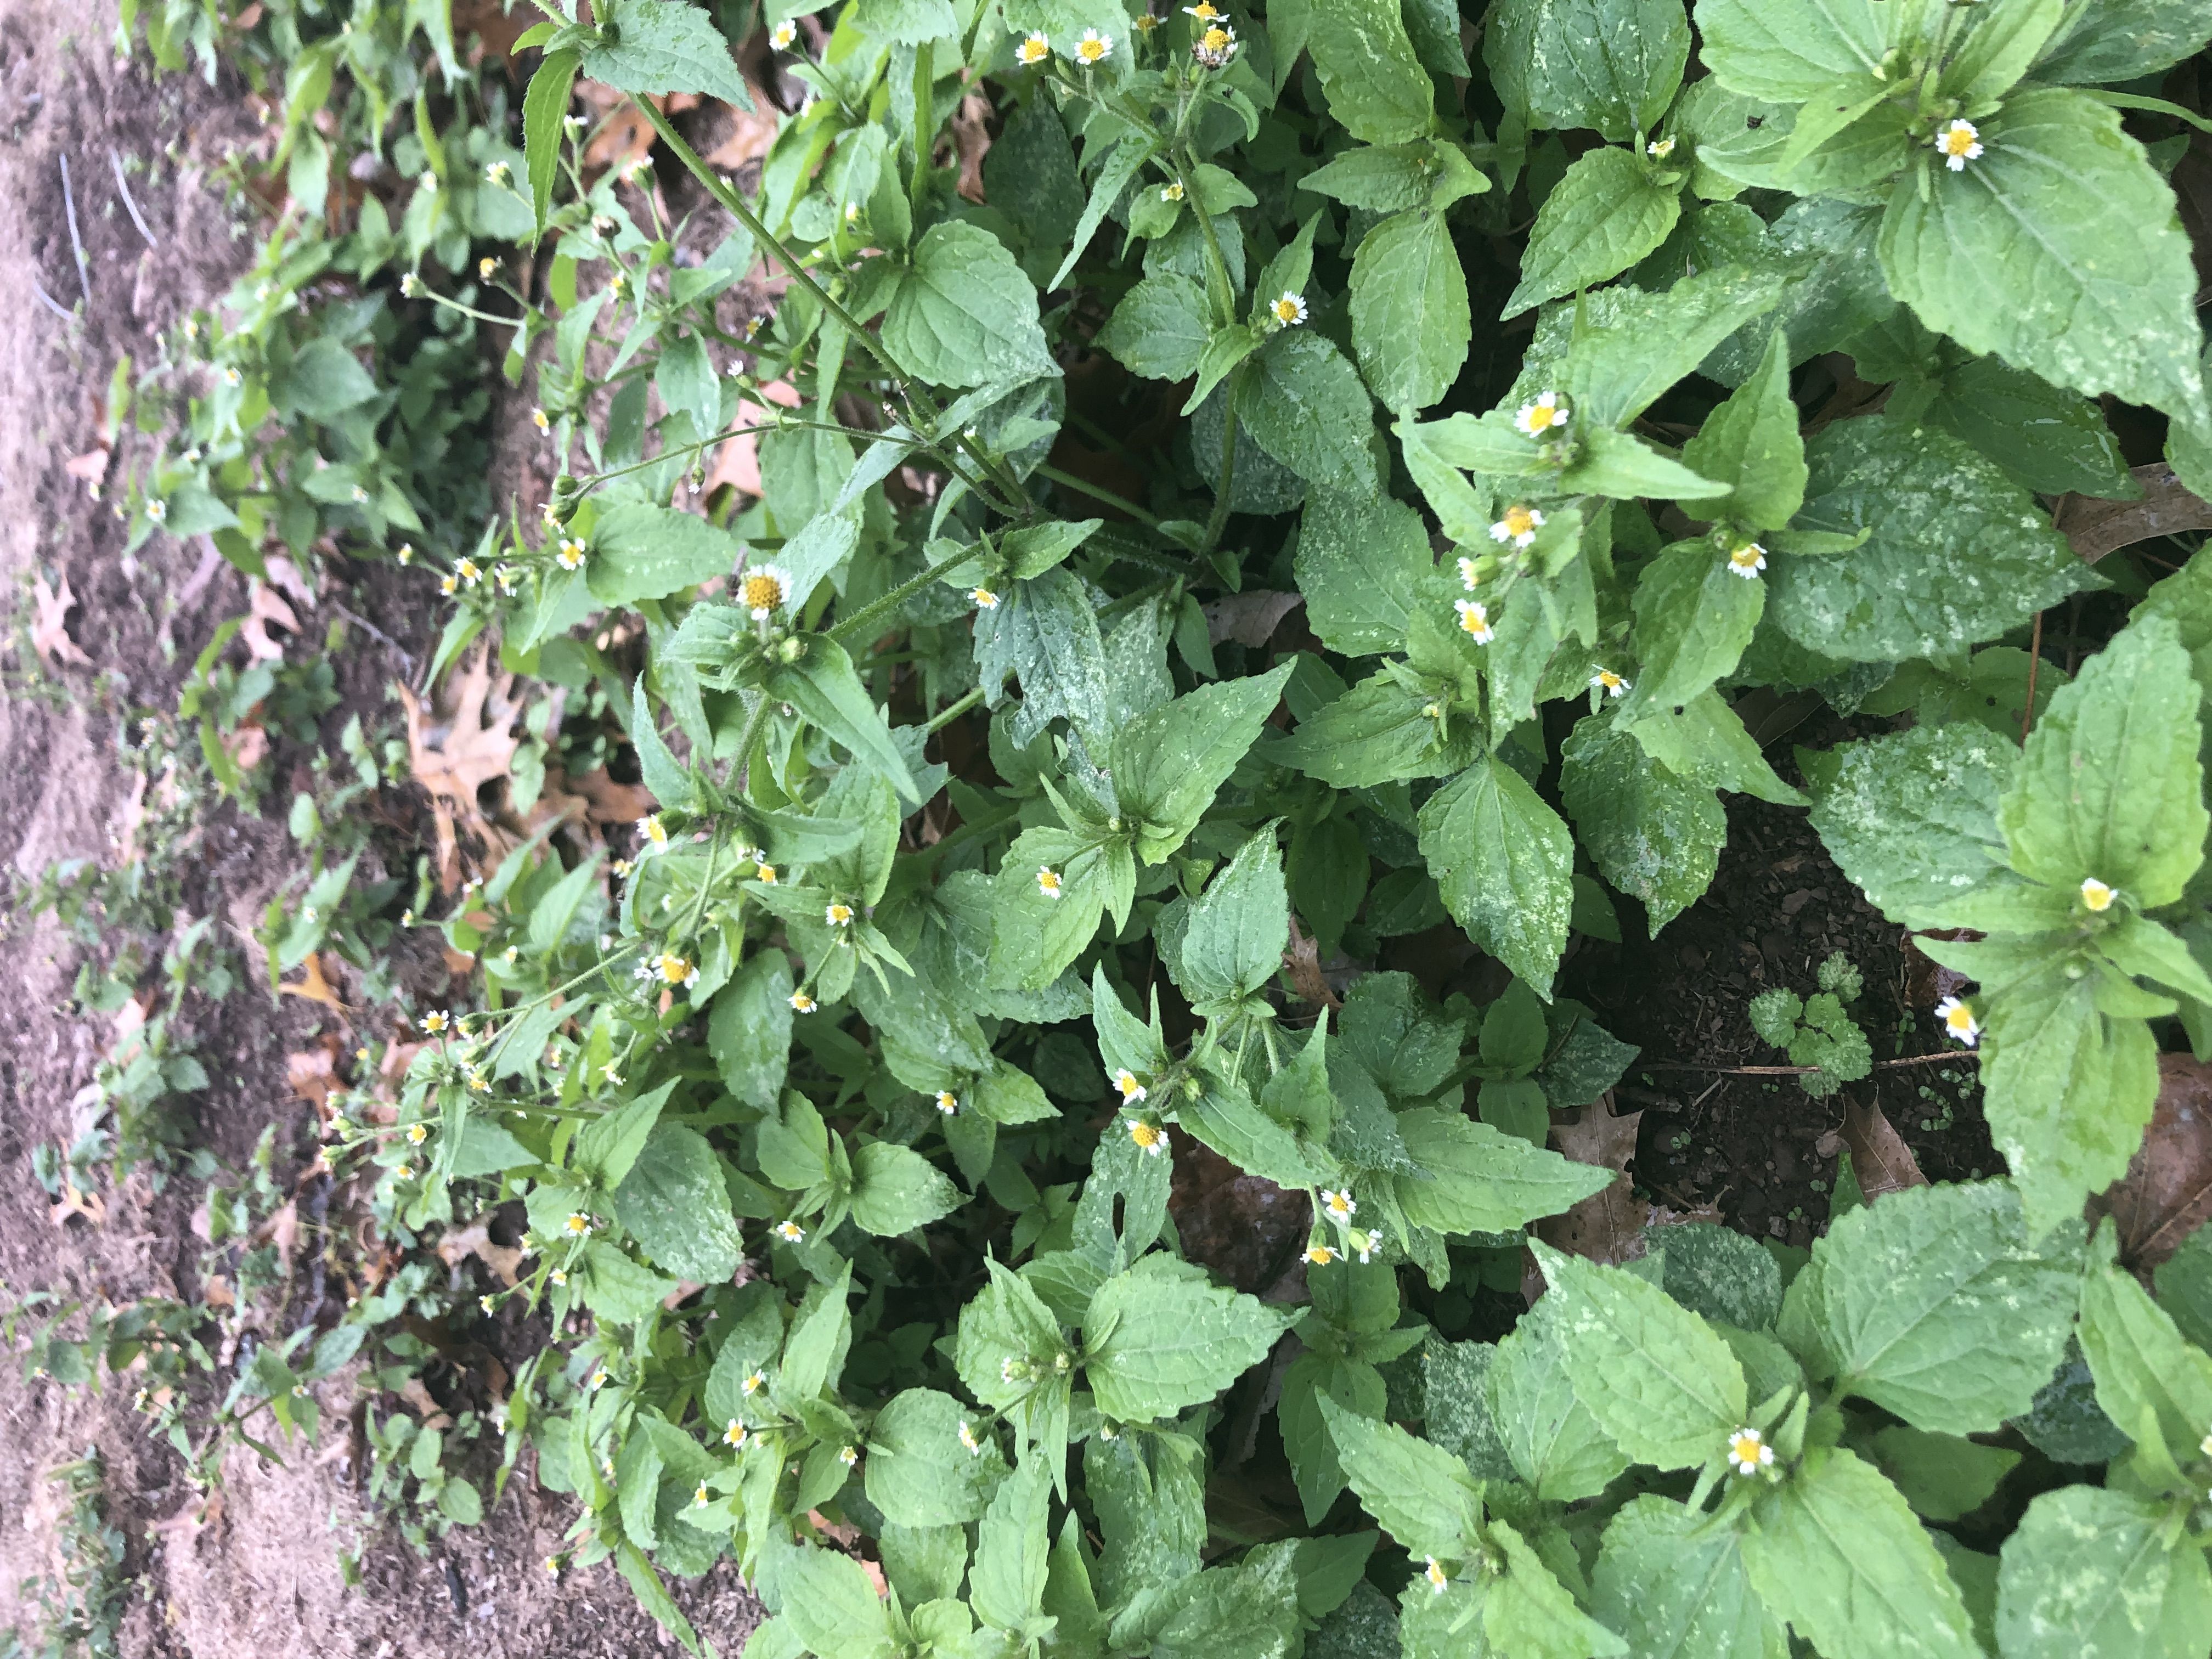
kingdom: Plantae
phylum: Tracheophyta
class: Magnoliopsida
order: Asterales
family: Asteraceae
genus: Galinsoga
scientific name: Galinsoga quadriradiata
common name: Quickweed
